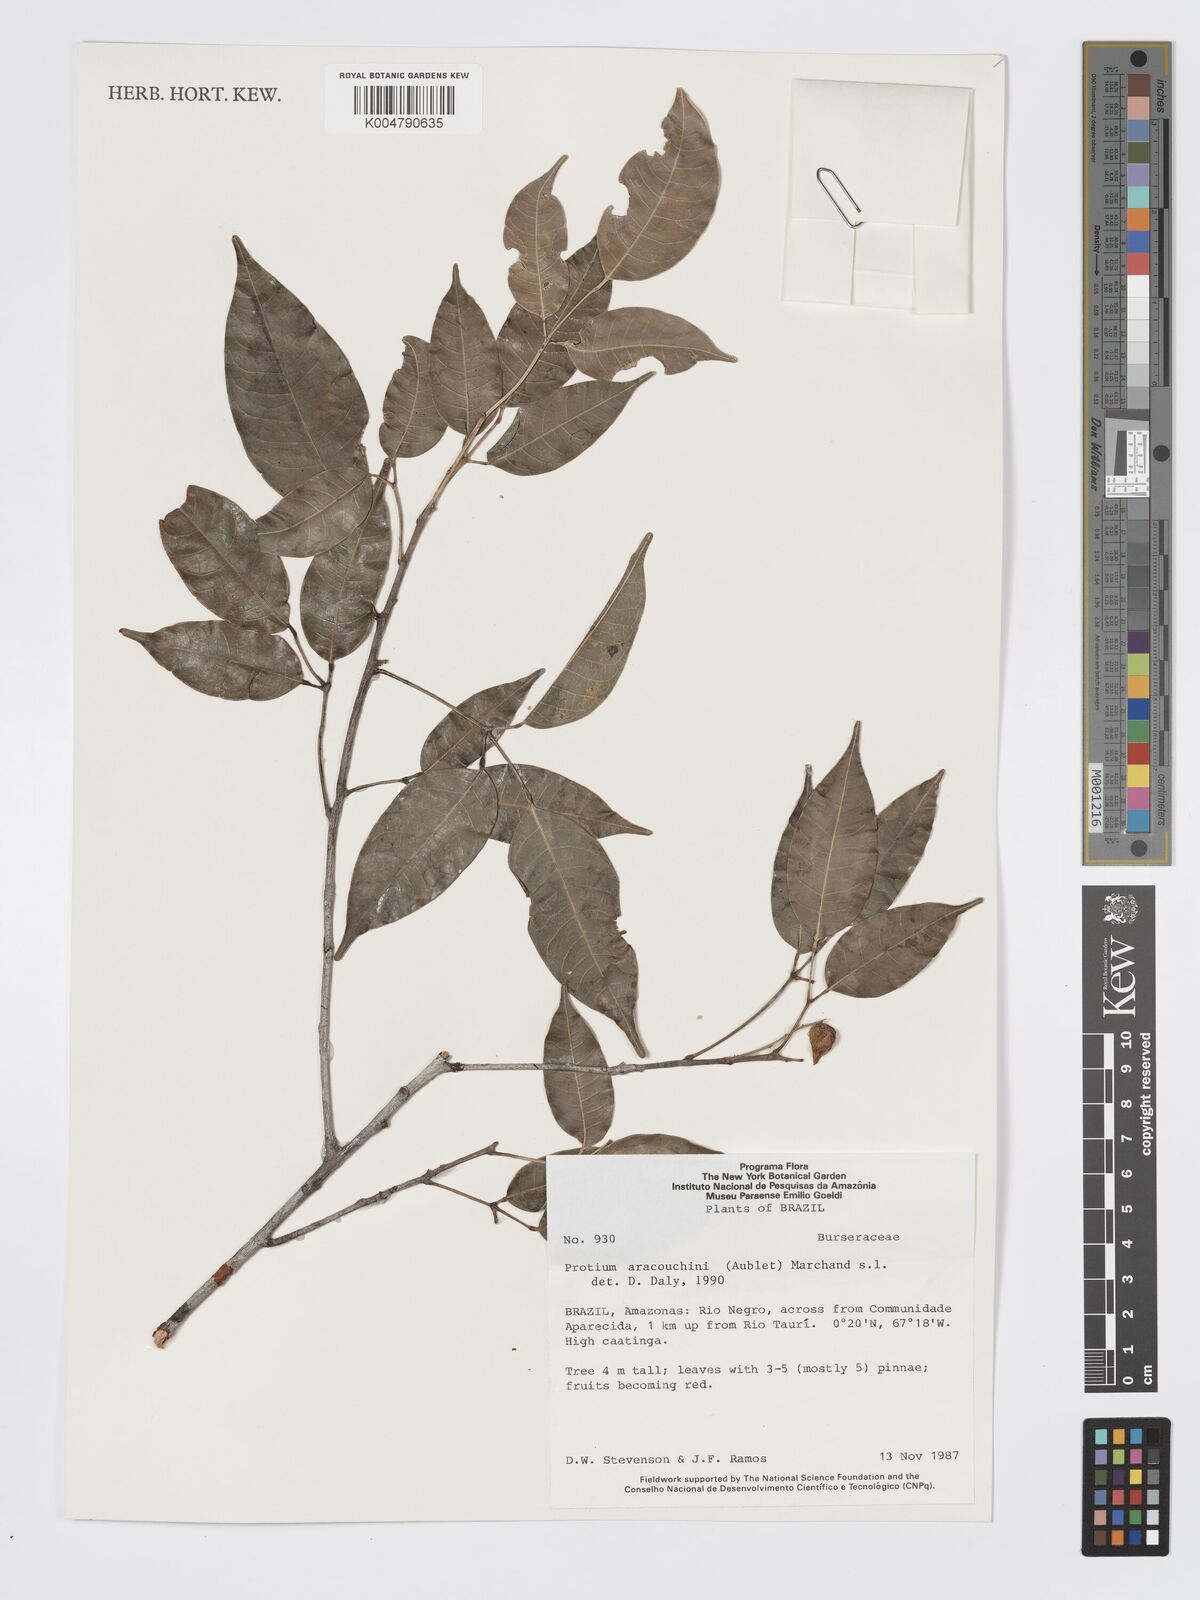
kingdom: Plantae
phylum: Tracheophyta
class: Magnoliopsida
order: Sapindales
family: Burseraceae
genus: Protium
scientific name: Protium aracouchini
